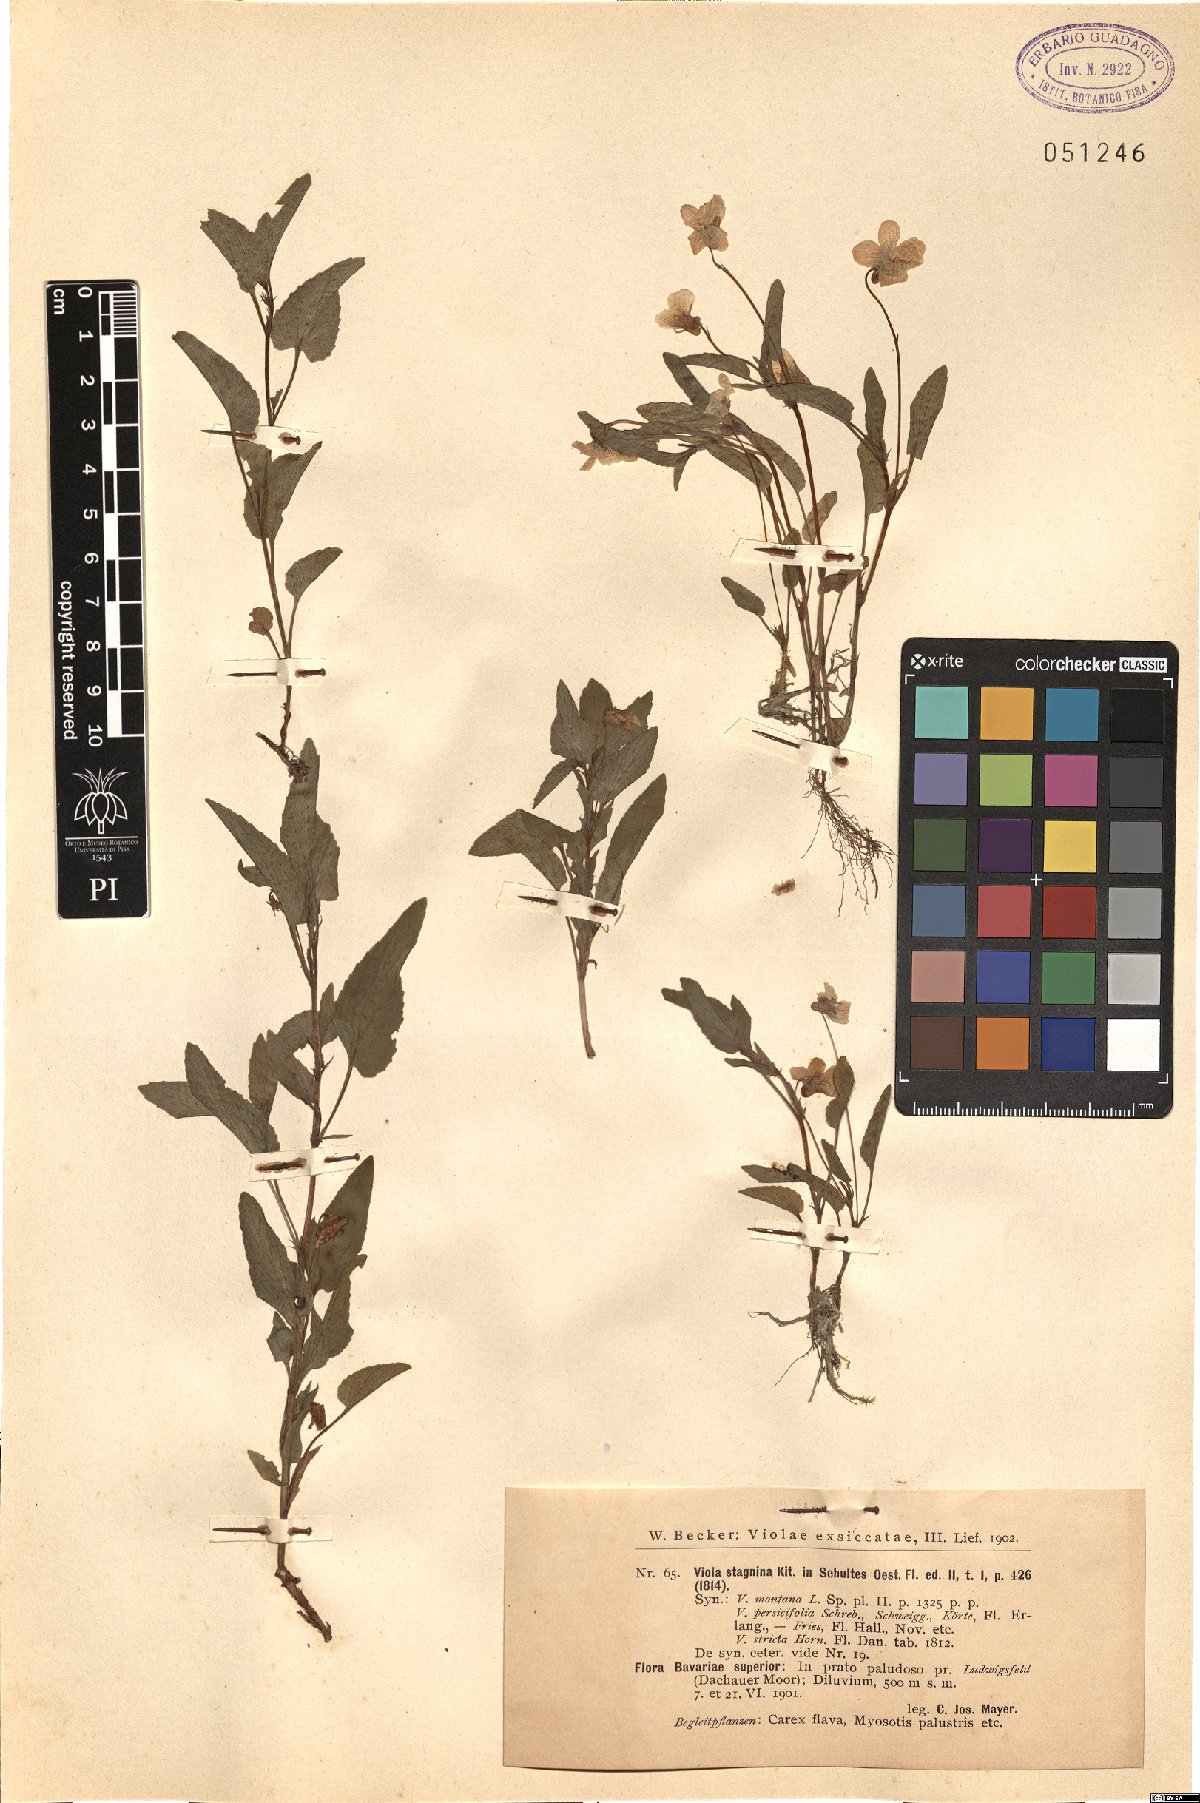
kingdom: Plantae
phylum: Tracheophyta
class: Magnoliopsida
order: Malpighiales
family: Violaceae
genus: Viola
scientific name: Viola stagnina
